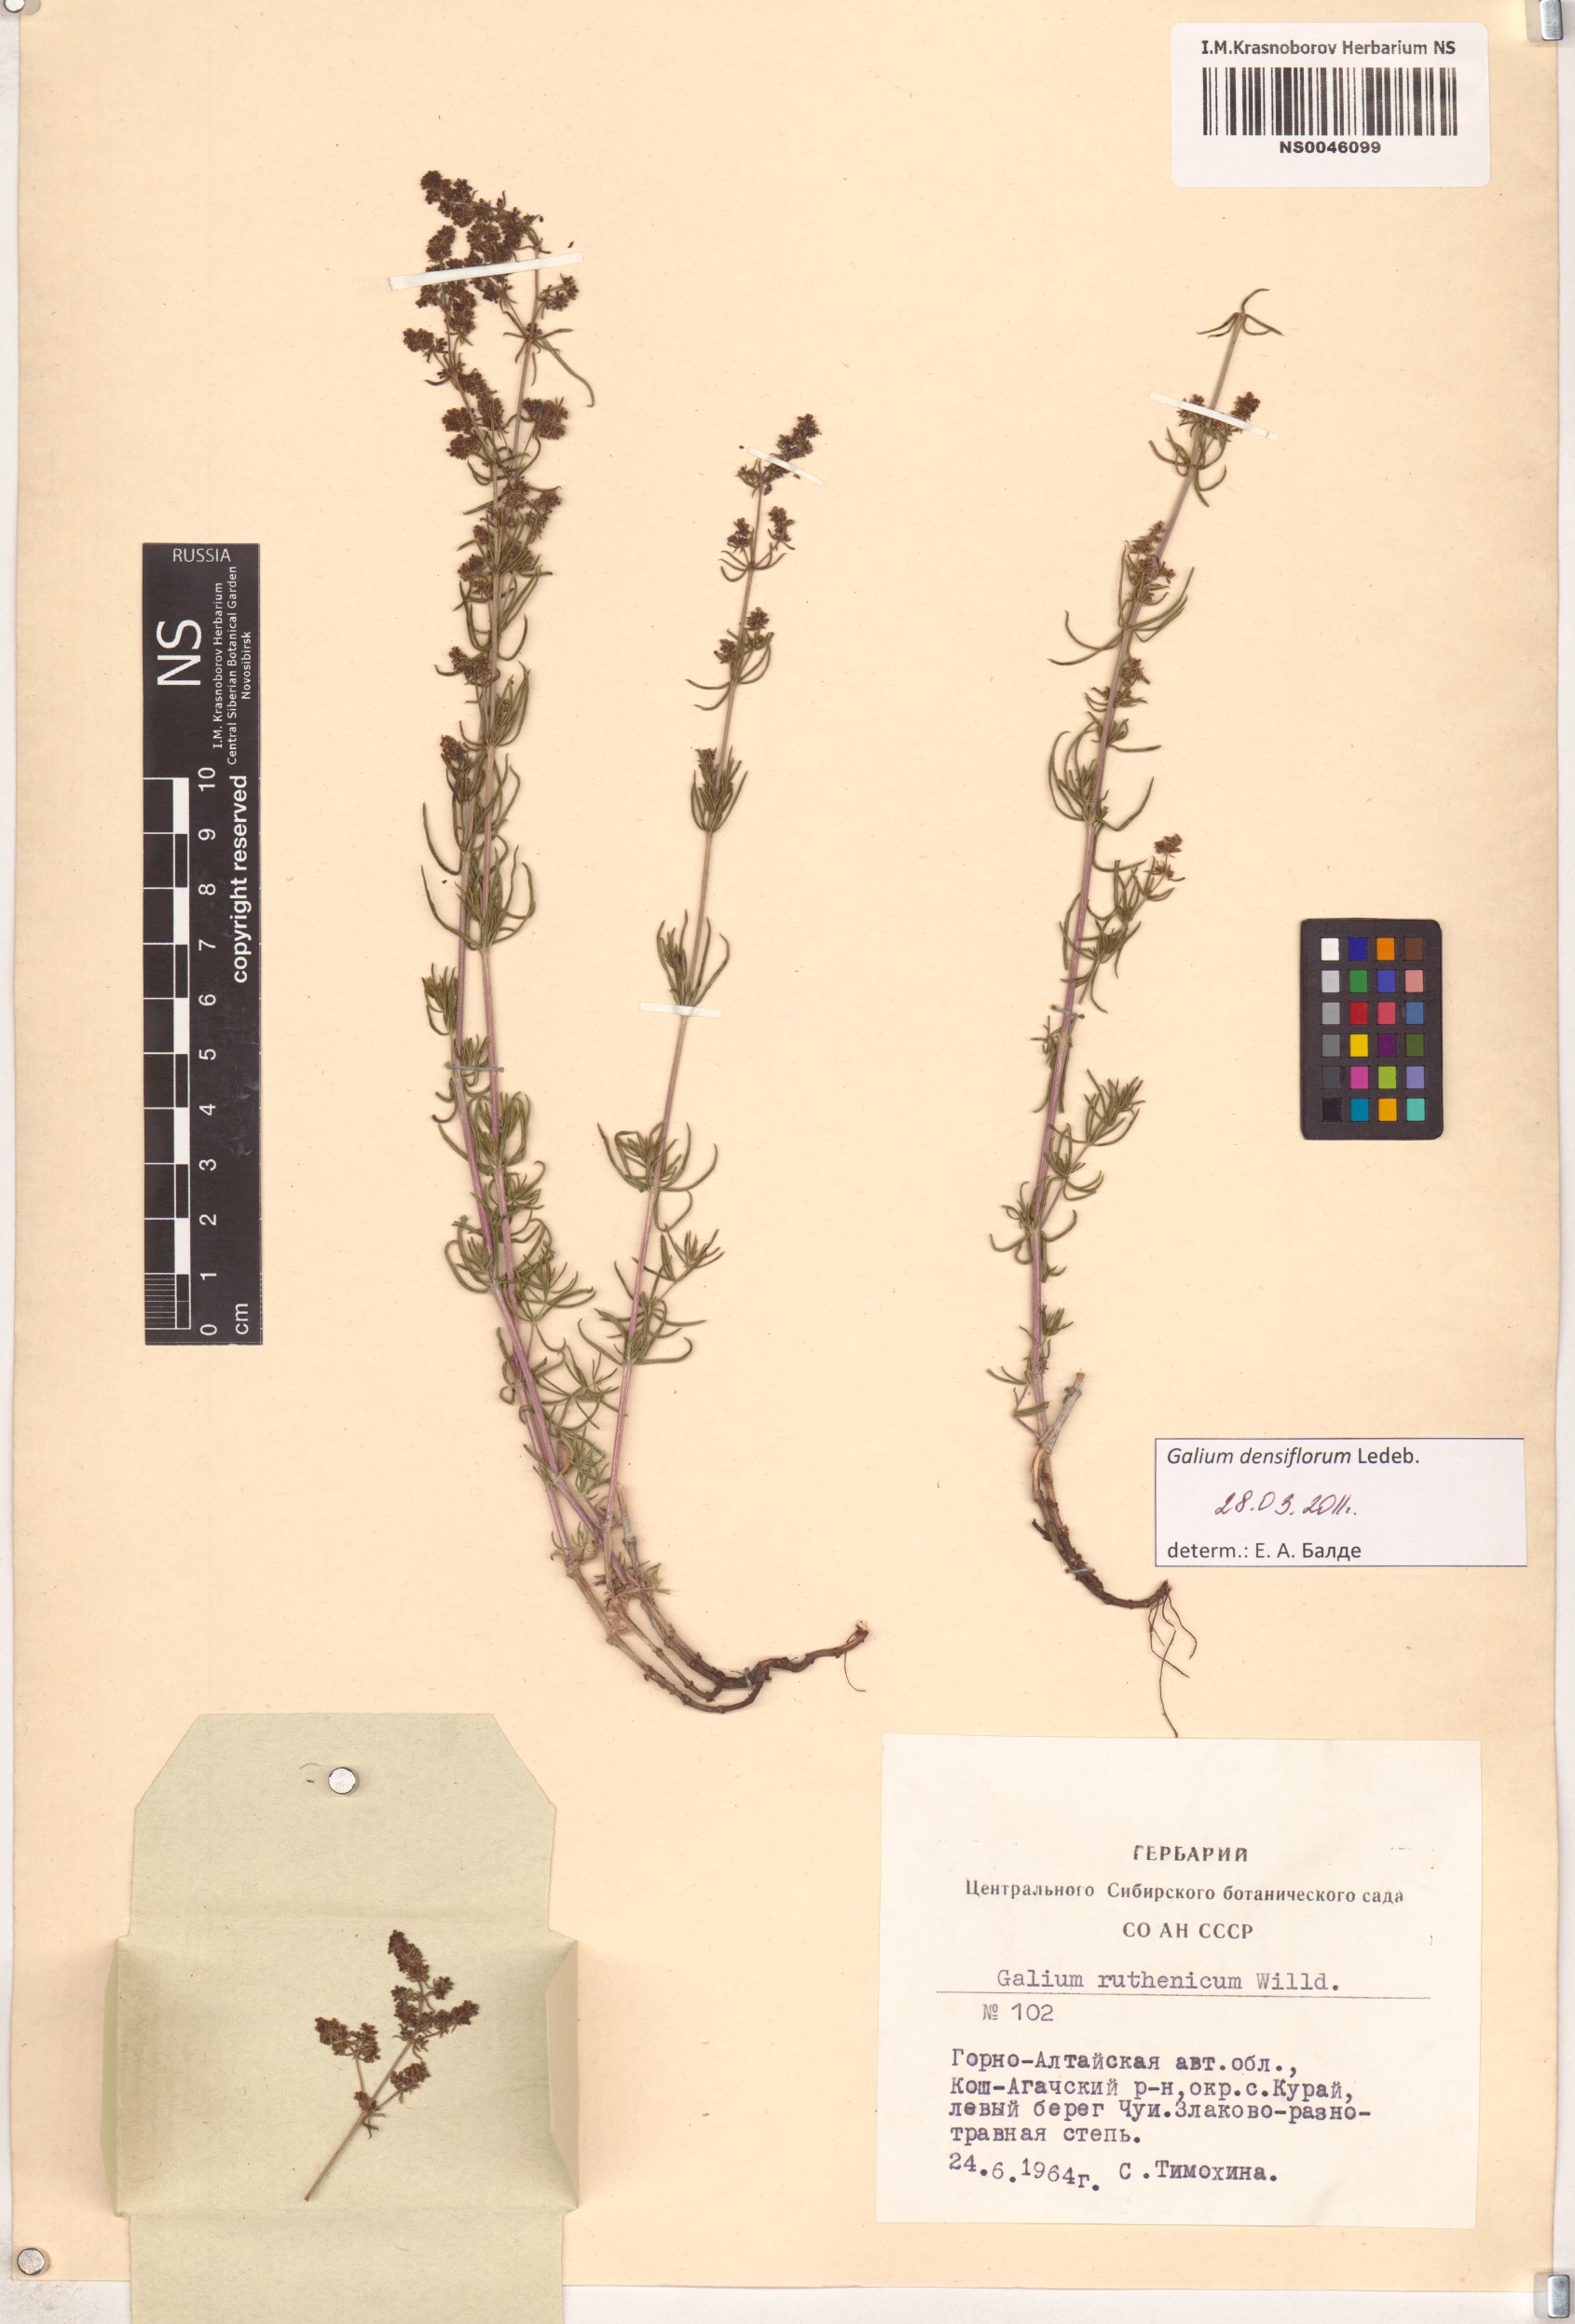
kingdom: Plantae
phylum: Tracheophyta
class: Magnoliopsida
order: Gentianales
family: Rubiaceae
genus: Galium
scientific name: Galium densiflorum
